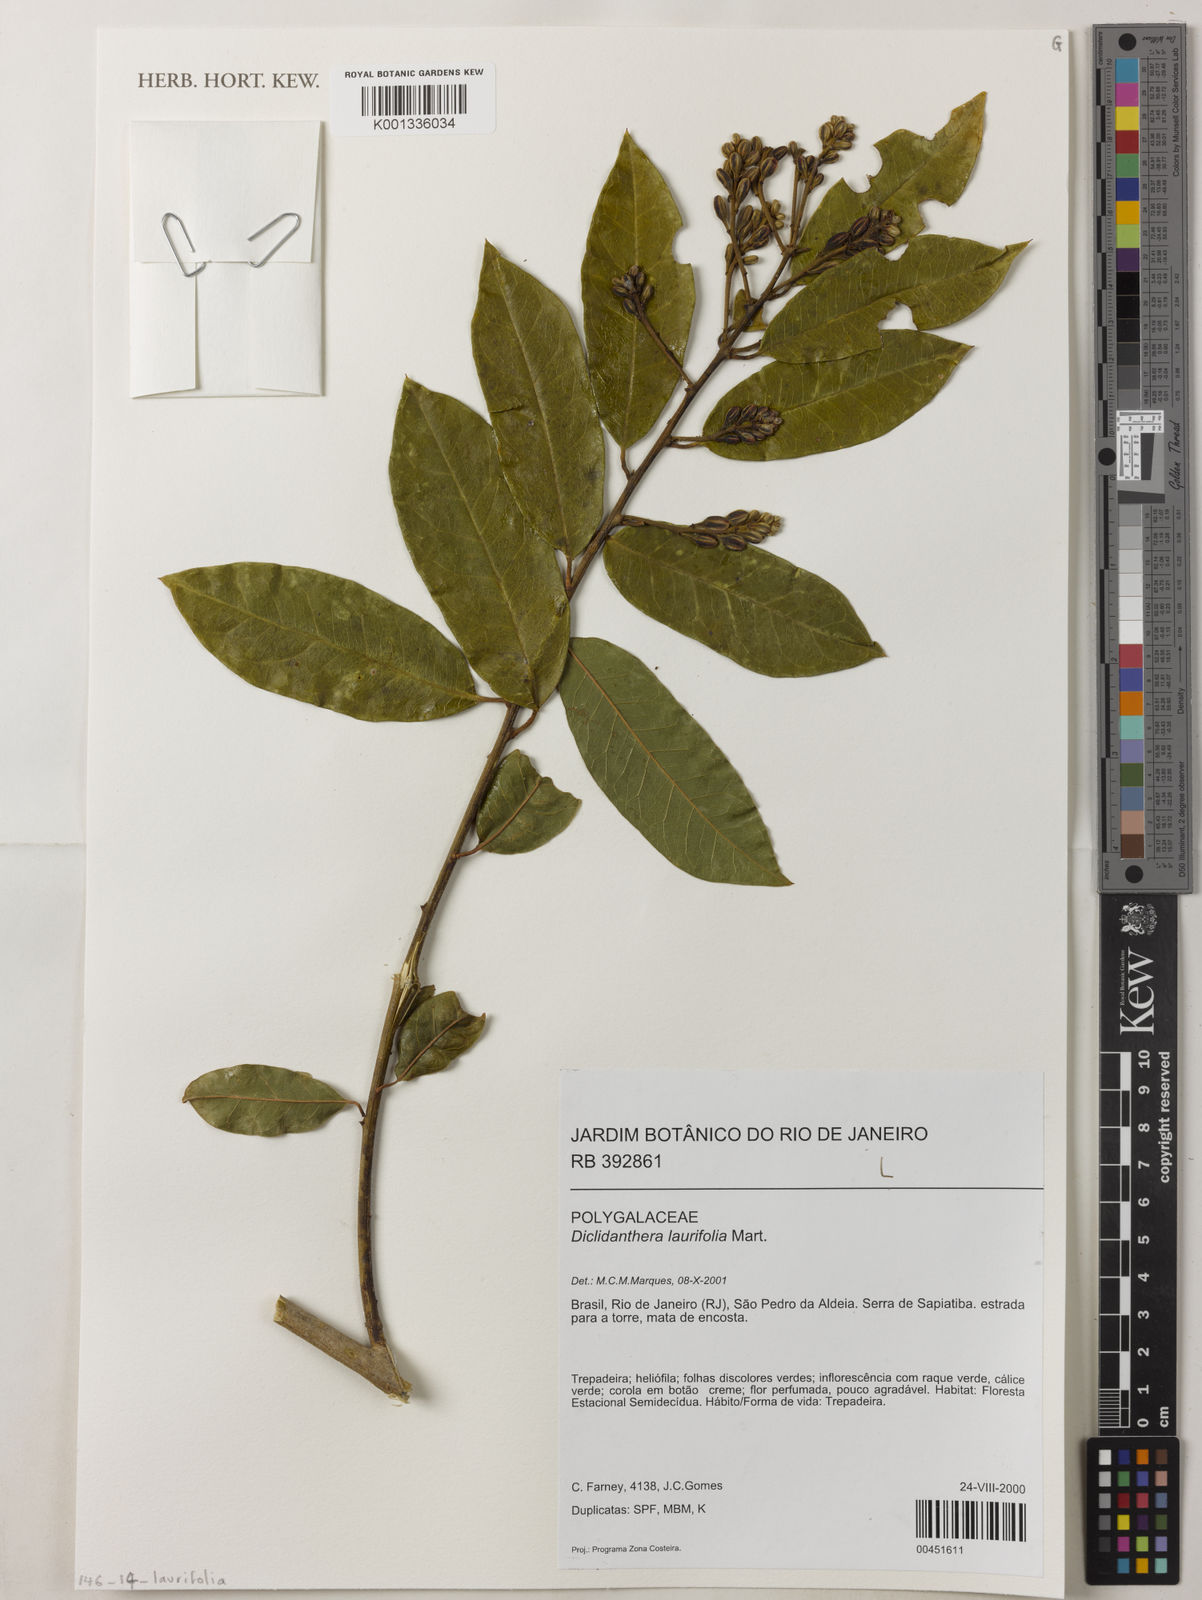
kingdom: Plantae
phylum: Tracheophyta
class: Magnoliopsida
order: Fabales
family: Polygalaceae
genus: Bredemeyera
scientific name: Bredemeyera laurifolia
